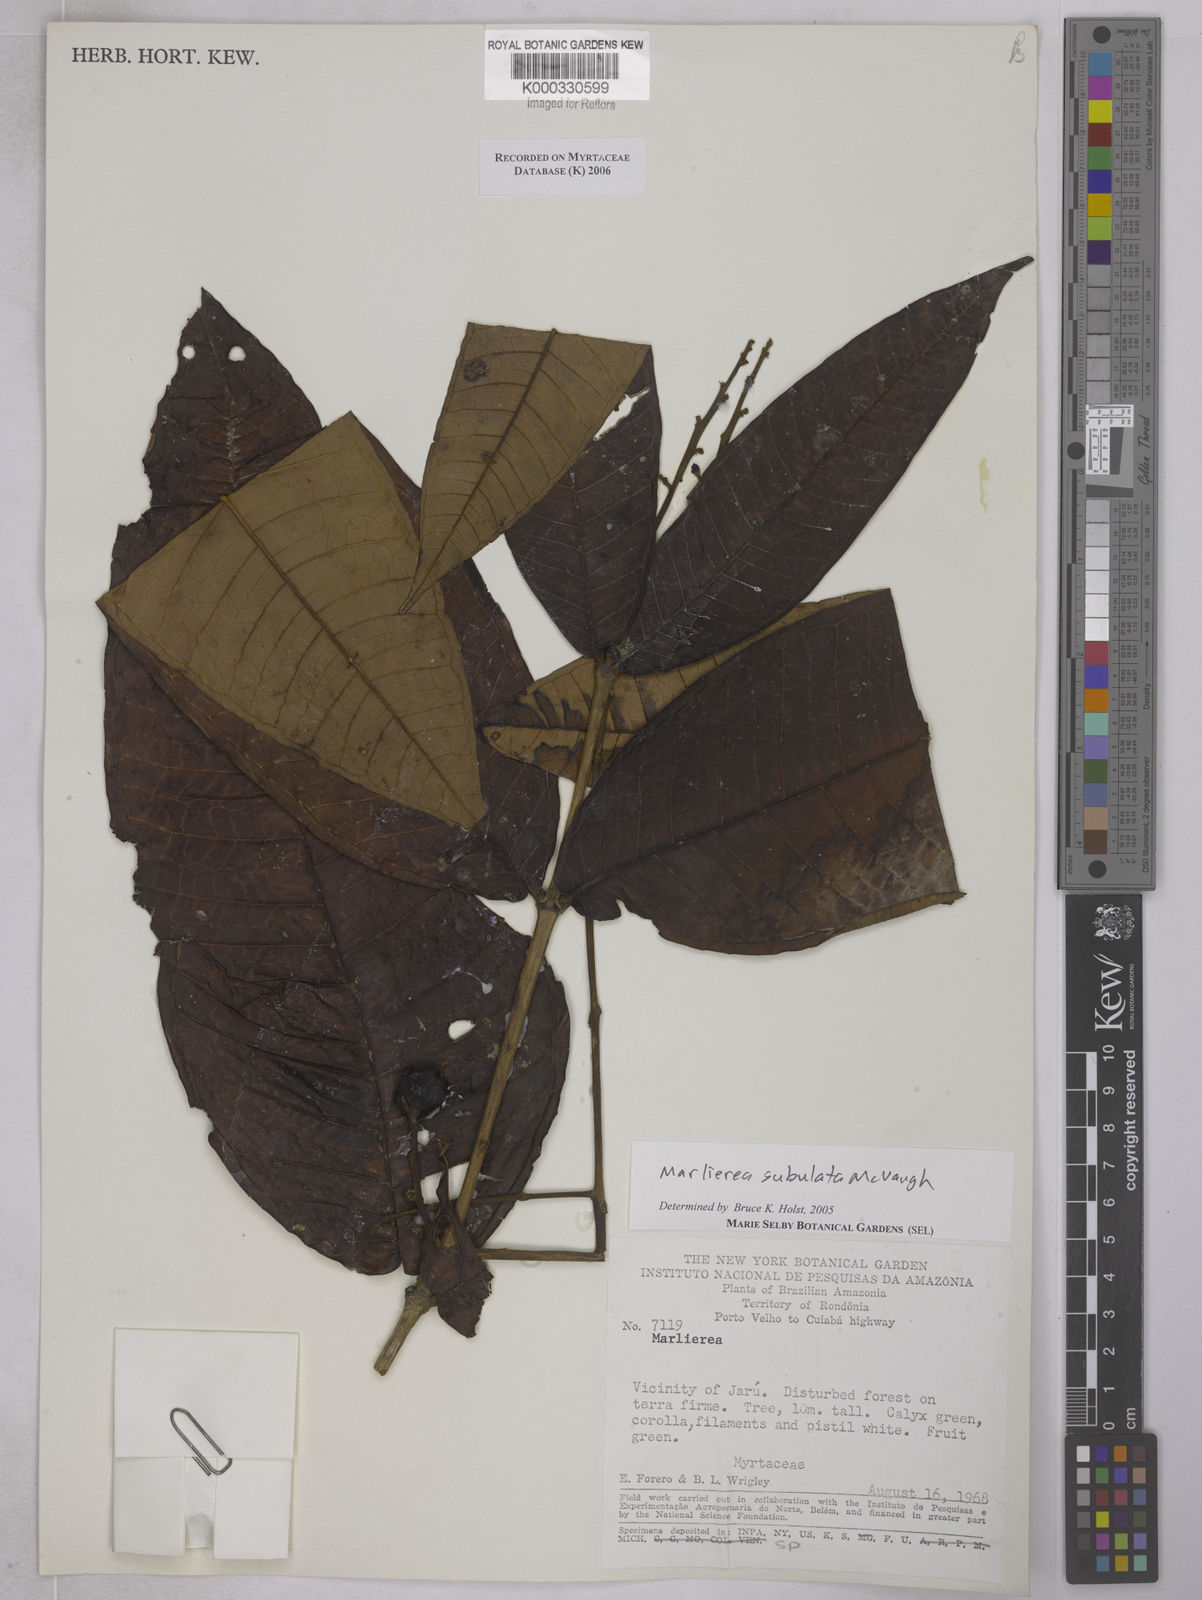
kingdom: Plantae
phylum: Tracheophyta
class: Magnoliopsida
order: Myrtales
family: Myrtaceae
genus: Myrcia
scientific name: Myrcia subulata
